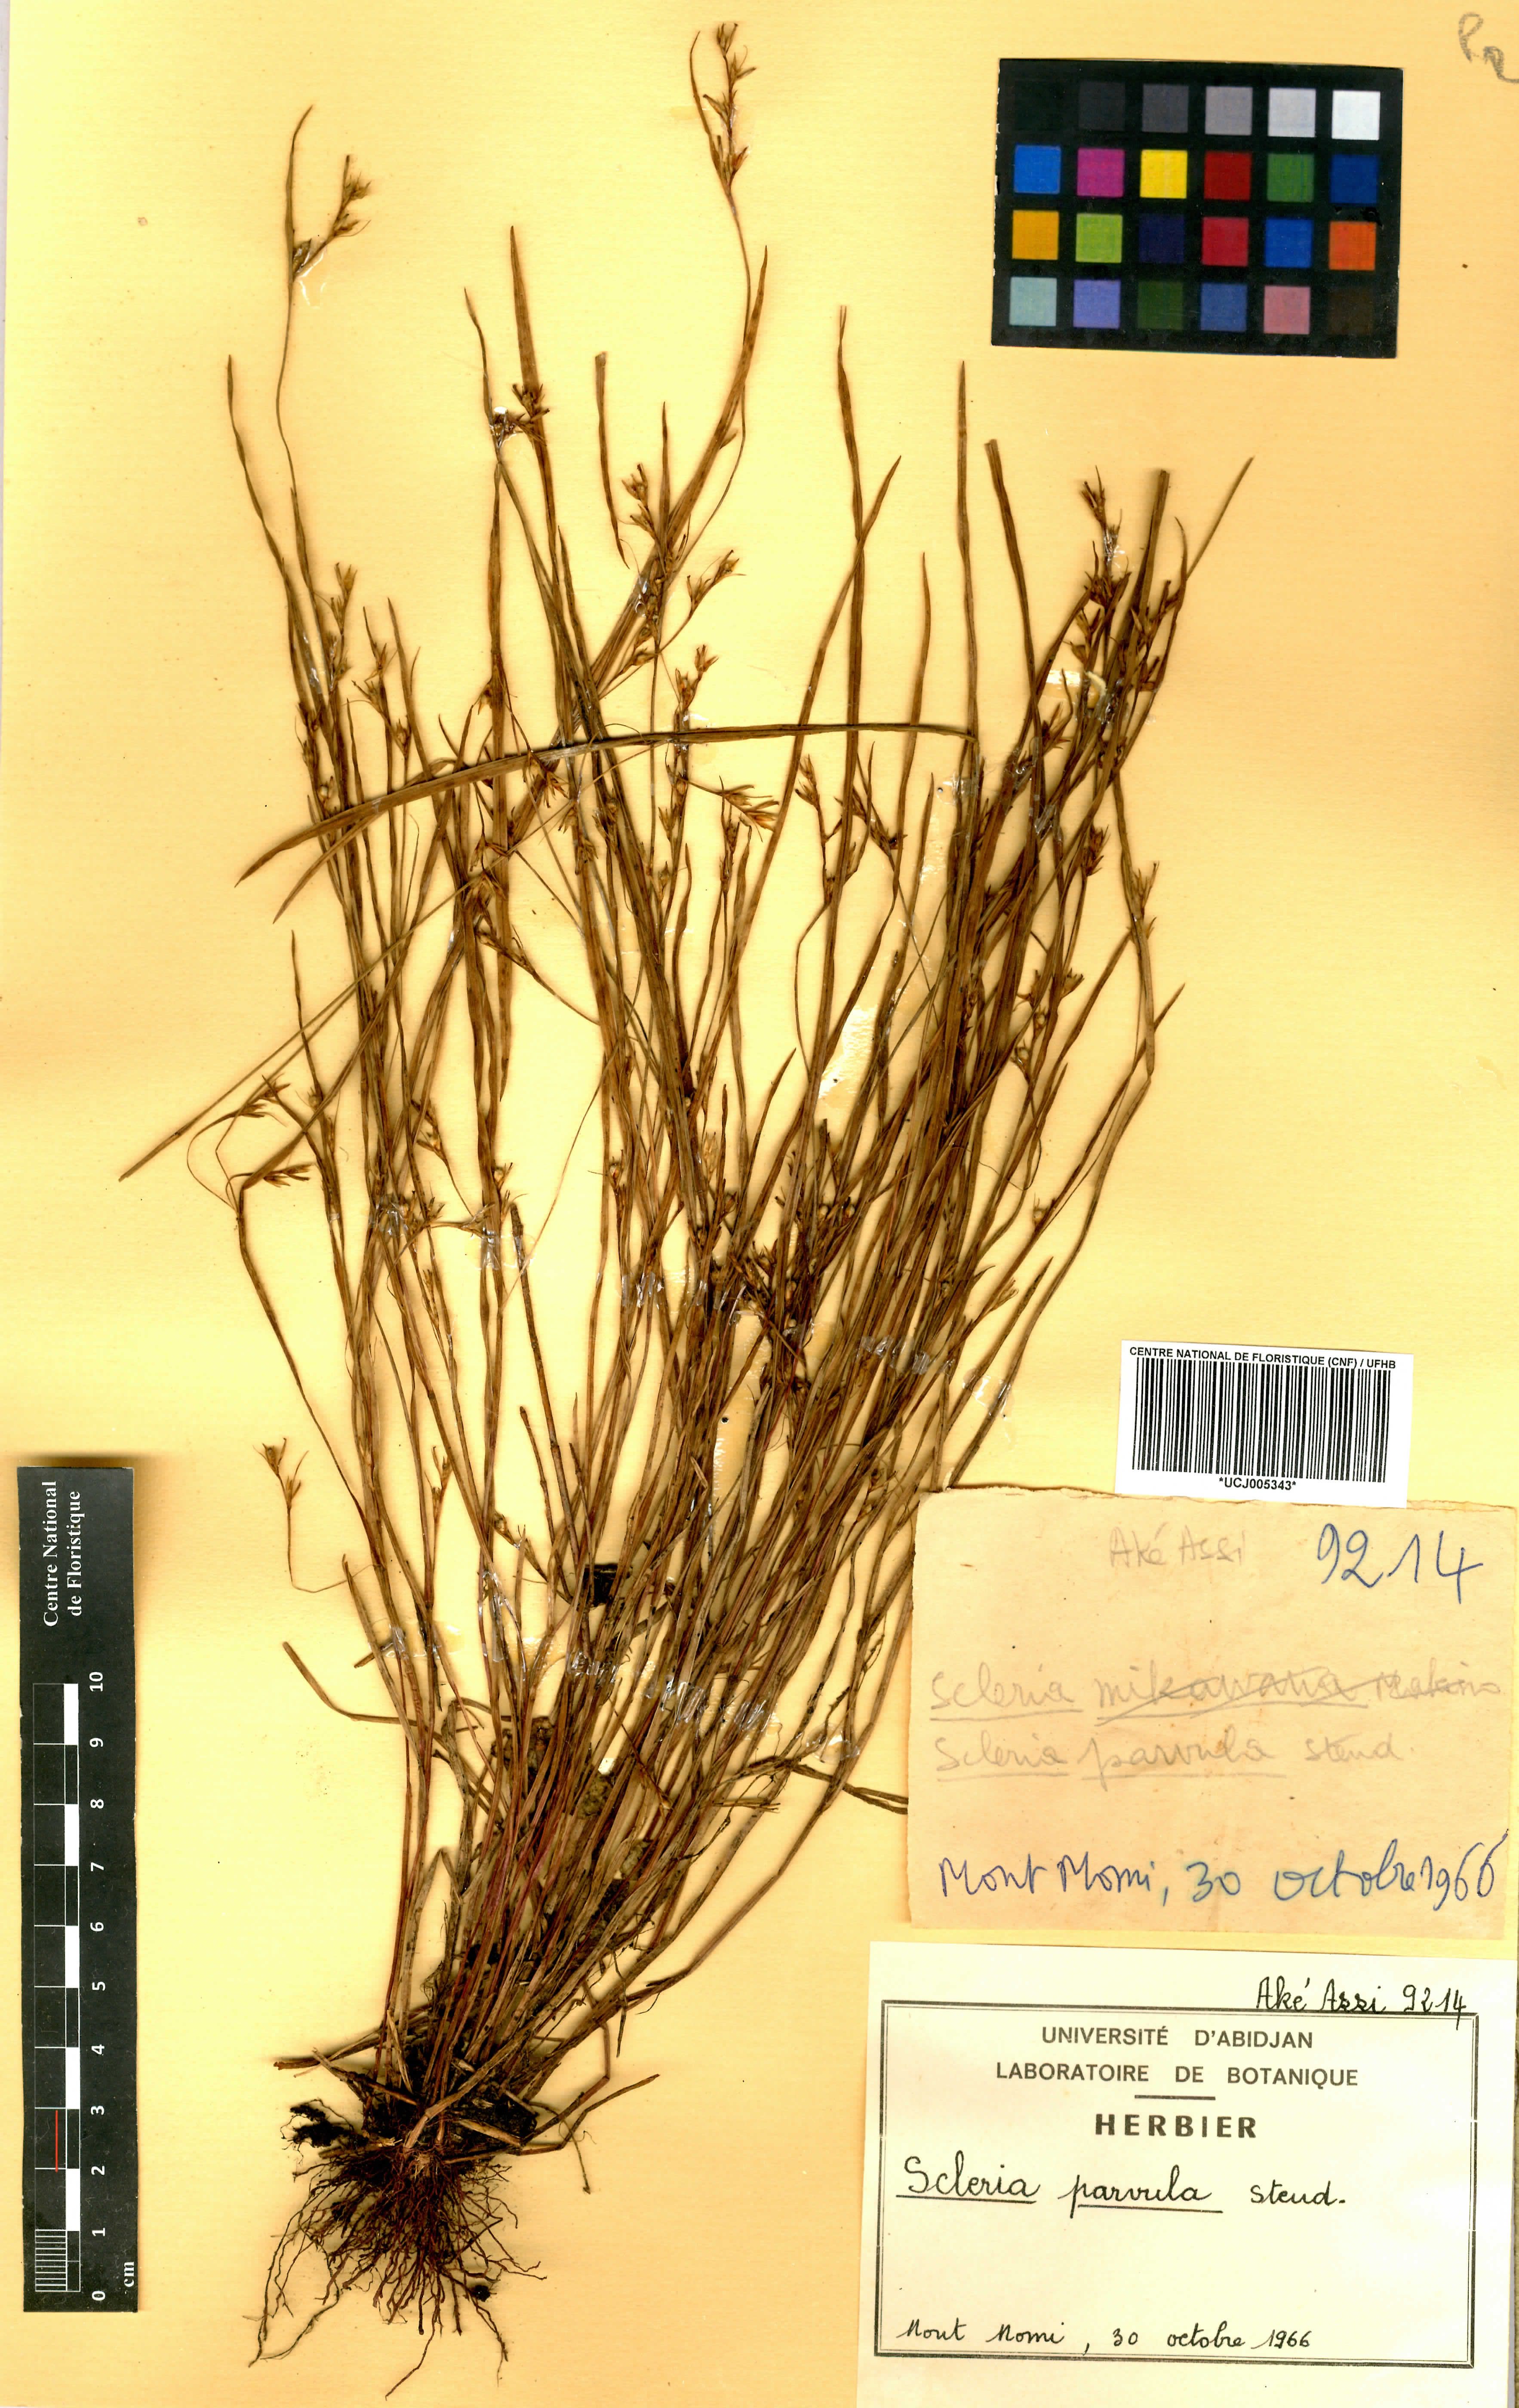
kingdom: Plantae
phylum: Tracheophyta
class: Liliopsida
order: Poales
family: Cyperaceae
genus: Scleria
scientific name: Scleria parvula
